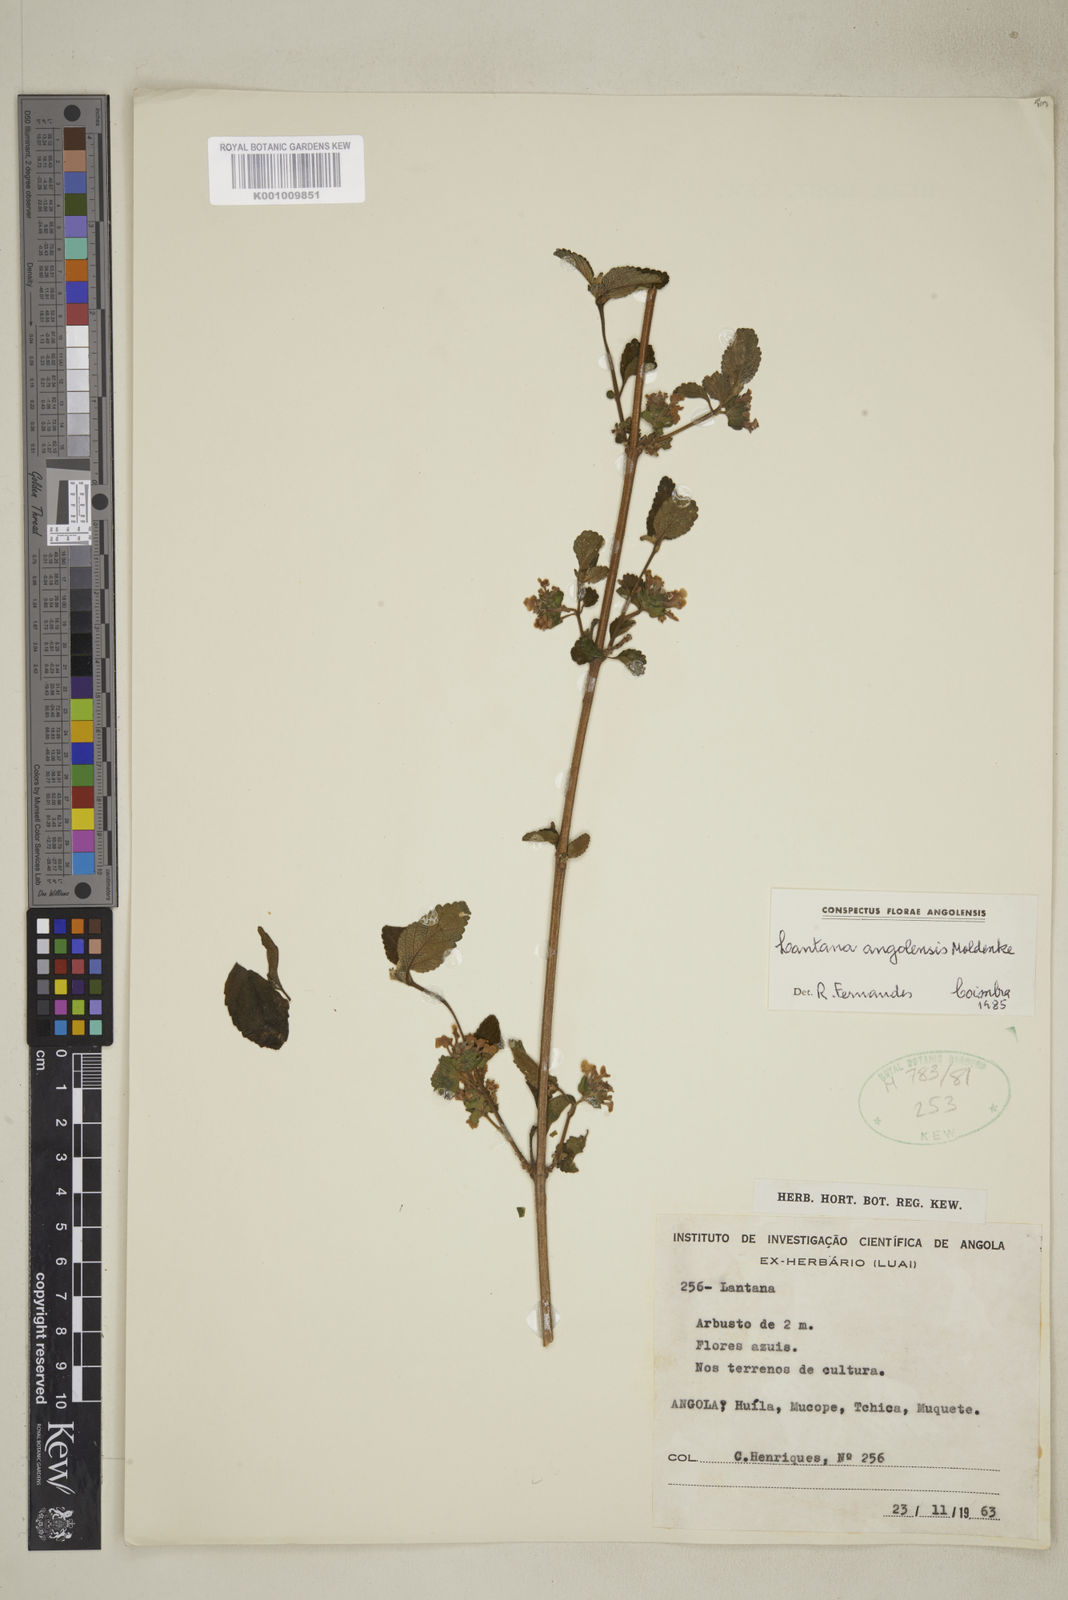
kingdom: Plantae
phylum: Tracheophyta
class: Magnoliopsida
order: Lamiales
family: Verbenaceae
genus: Lantana
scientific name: Lantana angolensis
